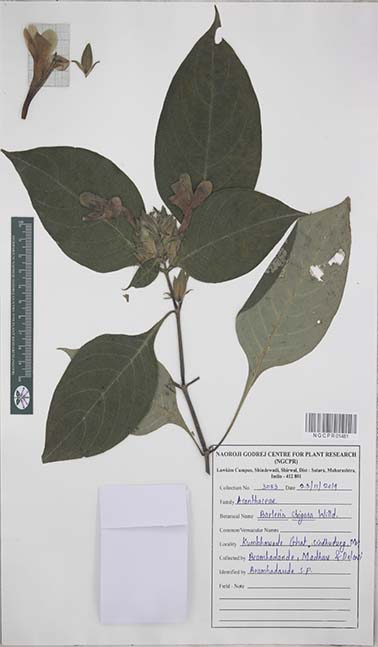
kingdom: Plantae
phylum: Tracheophyta
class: Magnoliopsida
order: Lamiales
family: Acanthaceae
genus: Barleria
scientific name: Barleria strigosa
